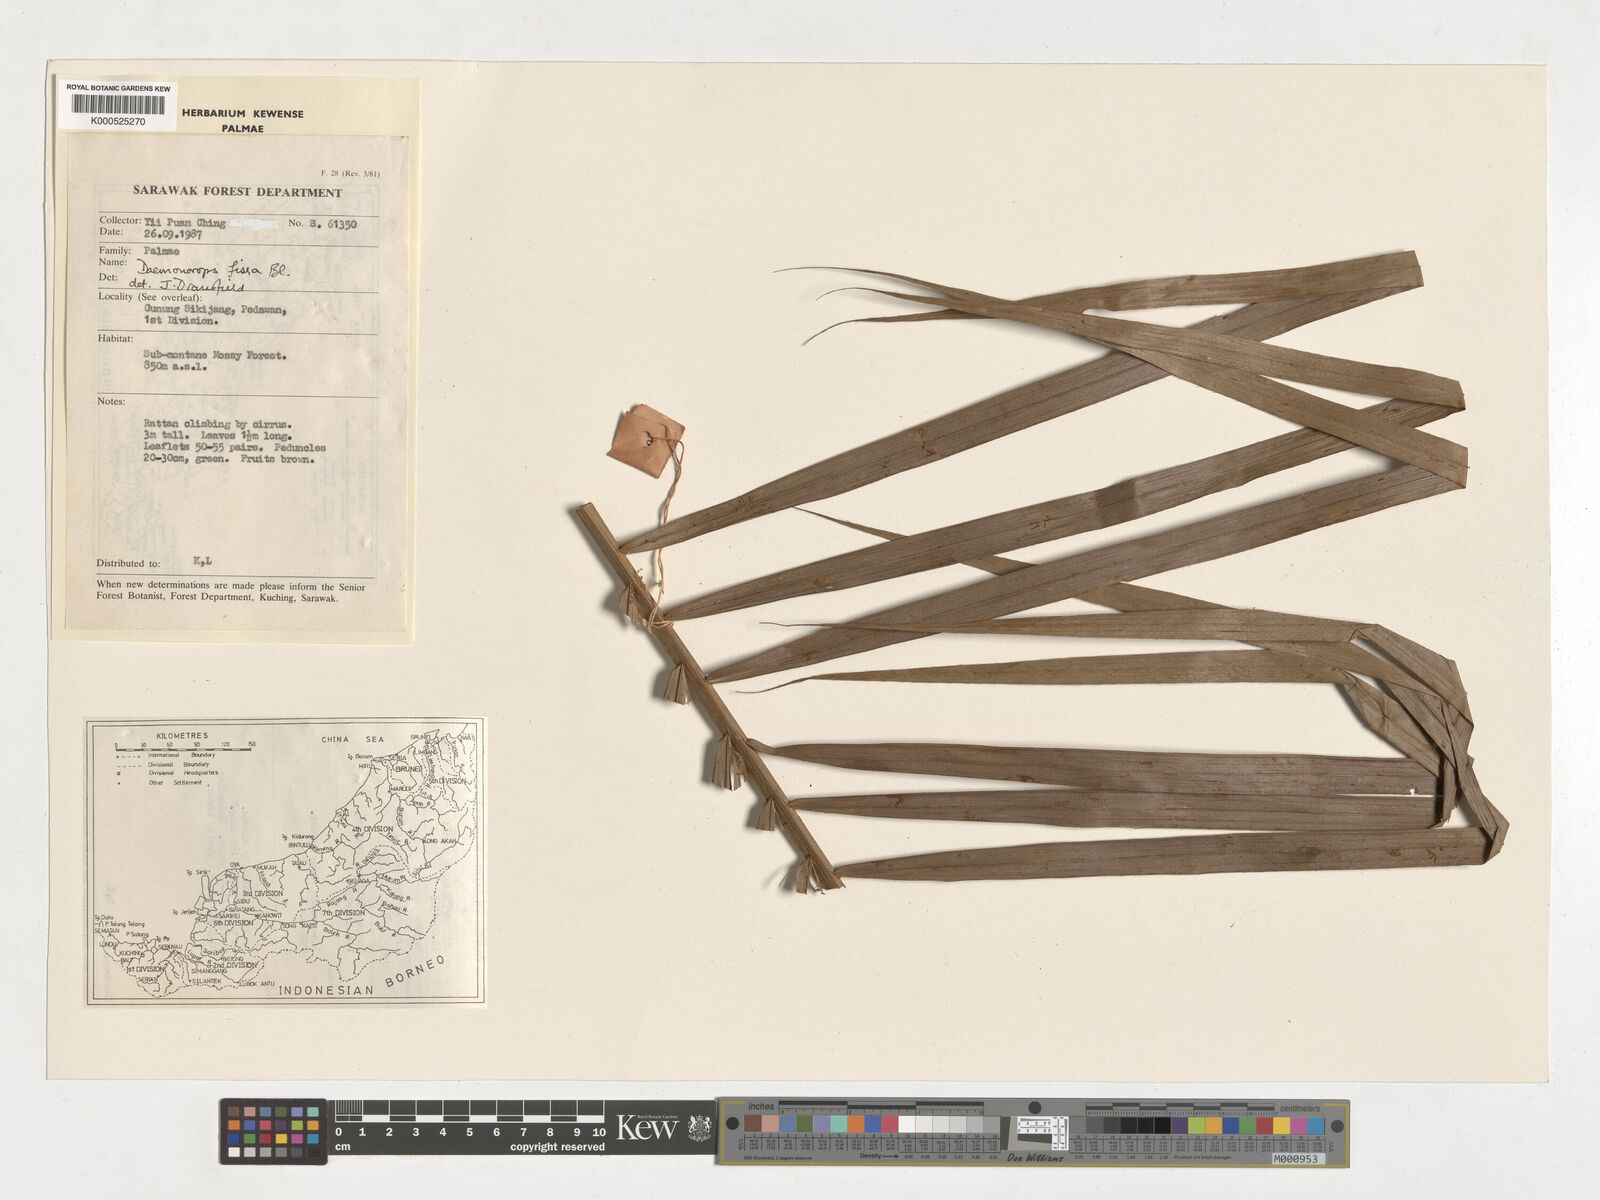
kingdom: Plantae
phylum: Tracheophyta
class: Liliopsida
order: Arecales
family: Arecaceae
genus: Calamus
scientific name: Calamus melanochaetes
